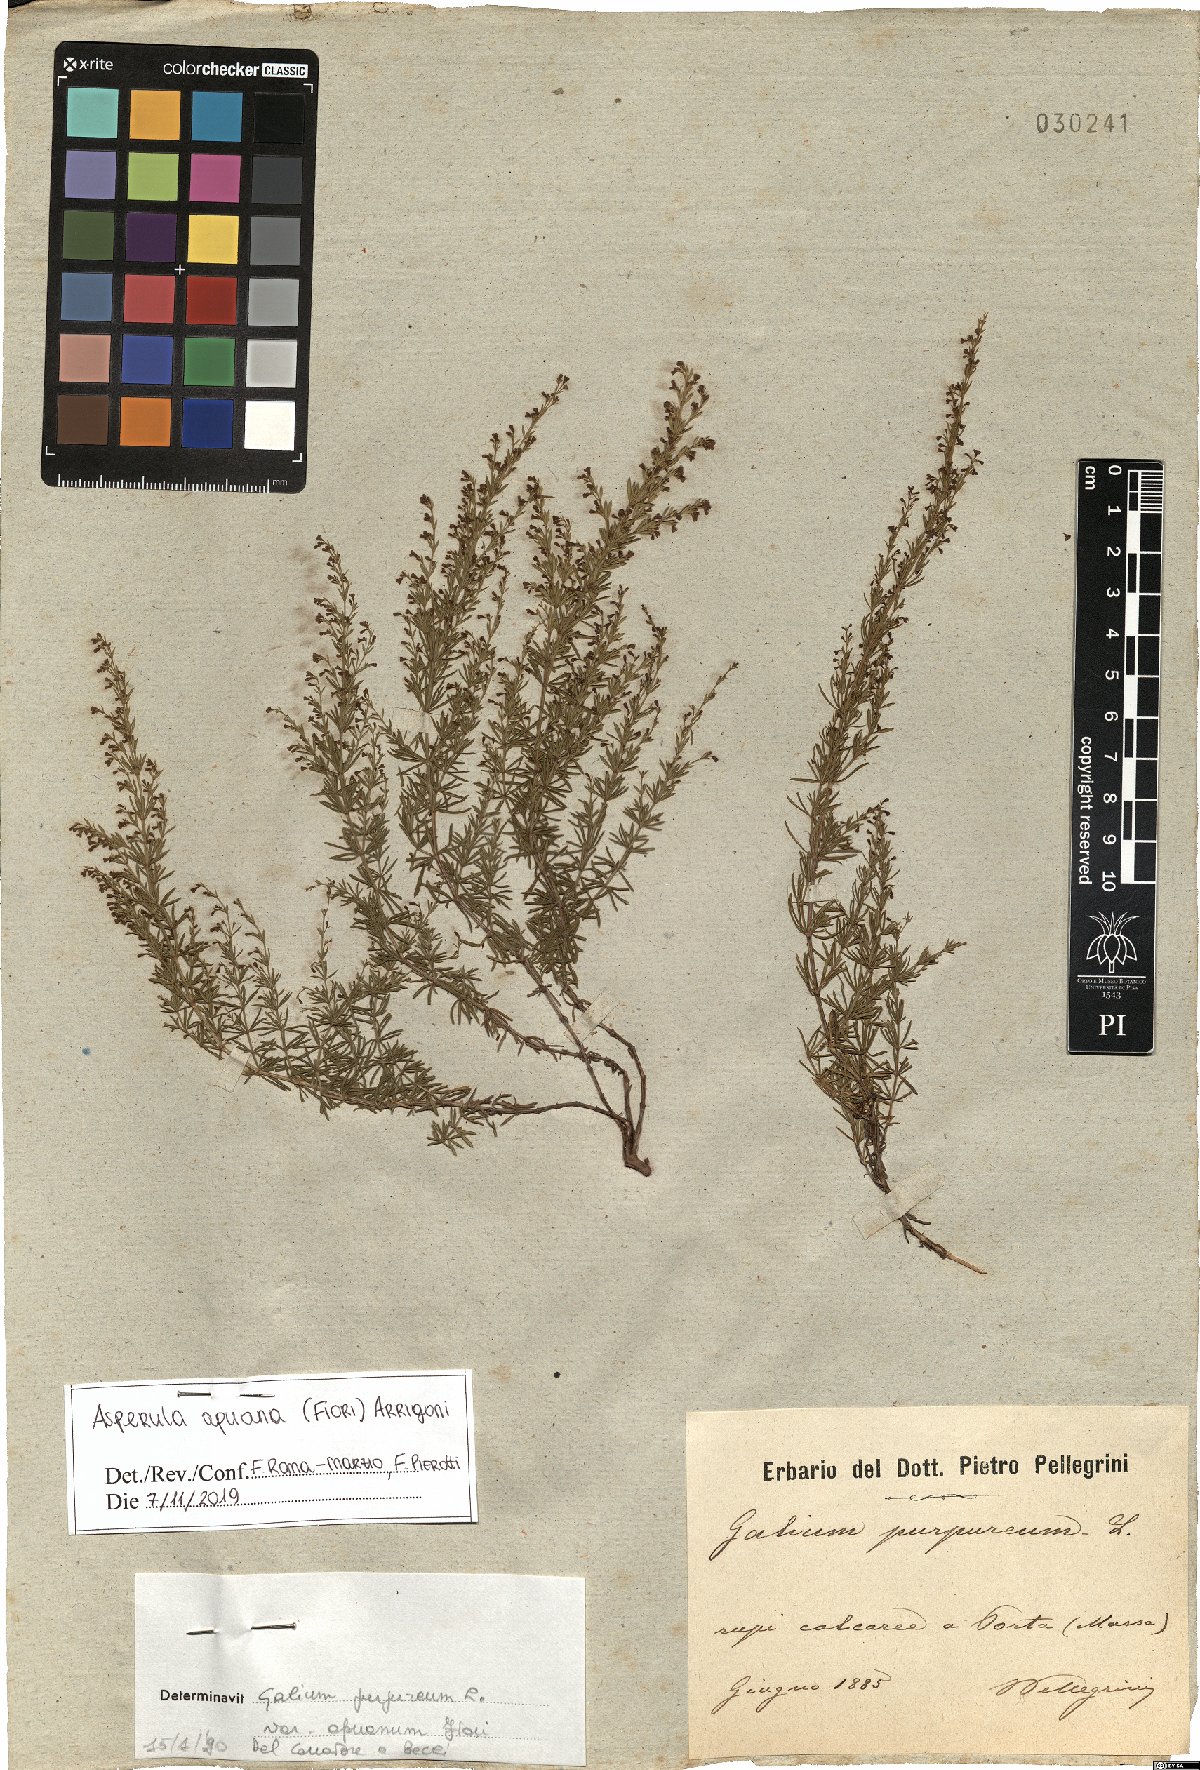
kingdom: Plantae
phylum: Tracheophyta
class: Magnoliopsida
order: Gentianales
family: Rubiaceae
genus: Thliphthisa
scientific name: Thliphthisa apuana
